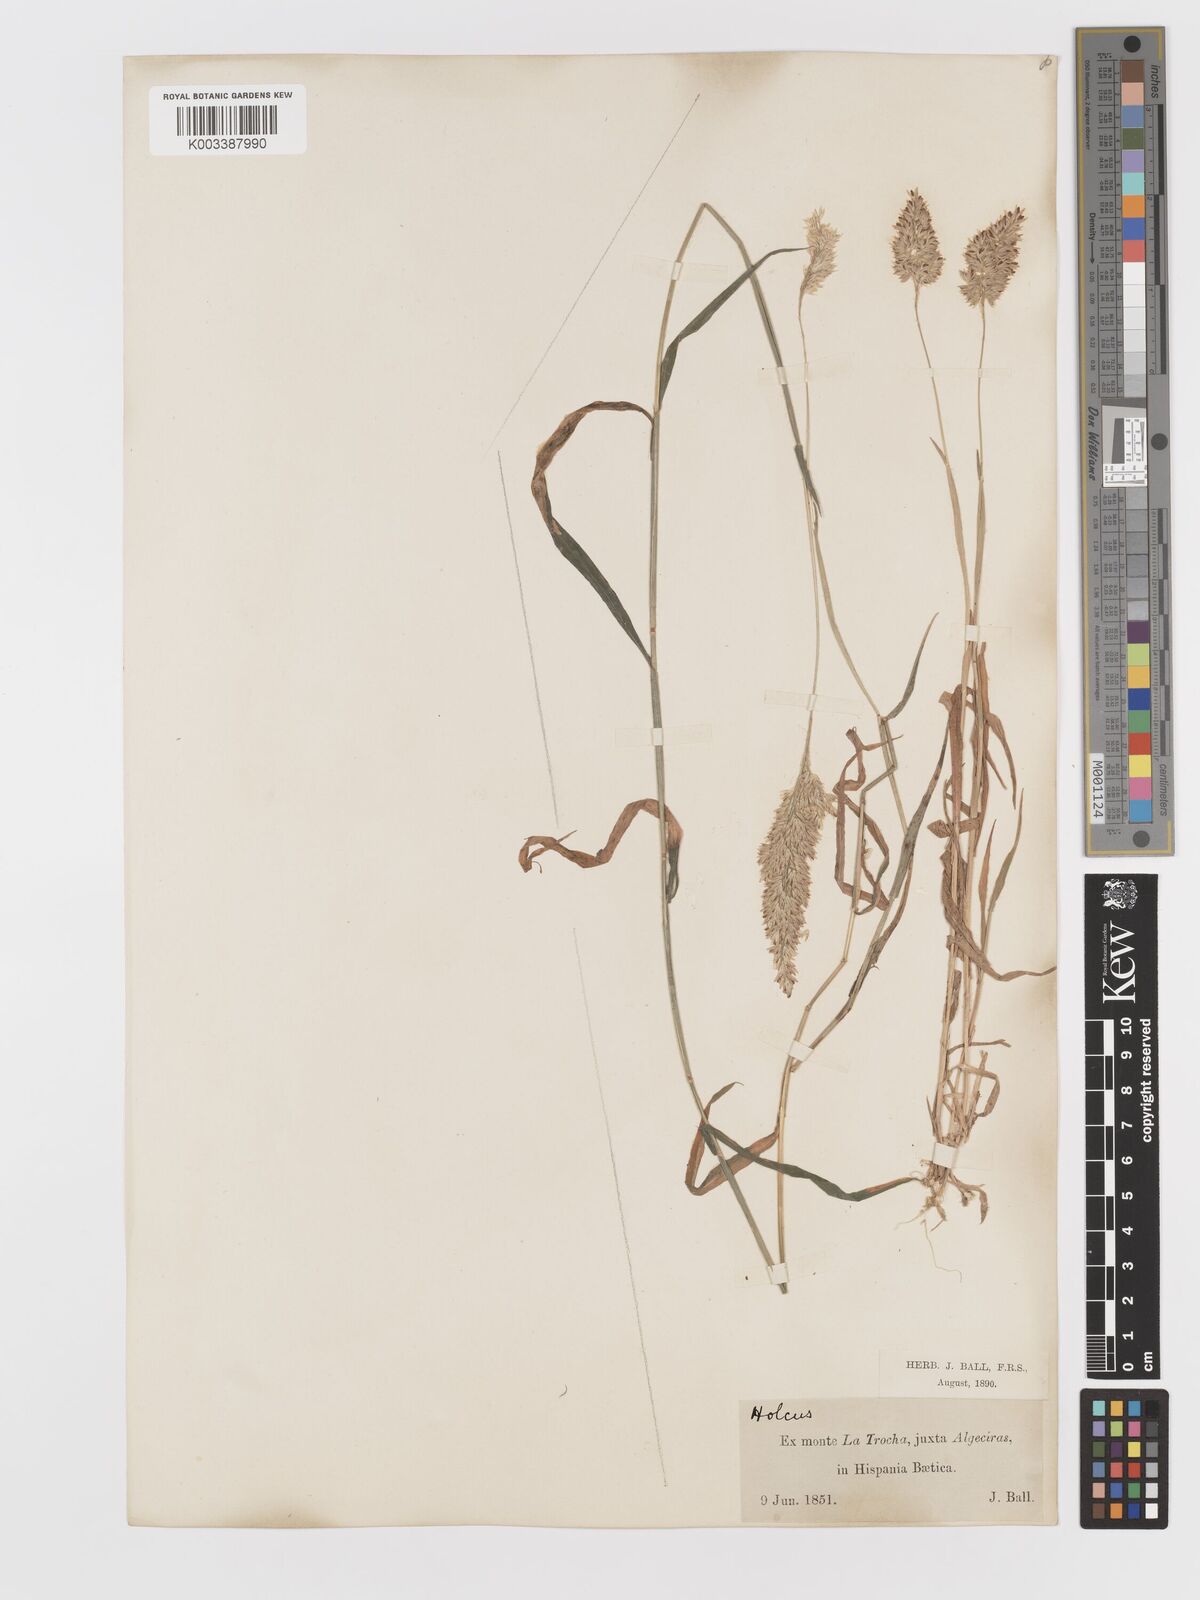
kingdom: Plantae
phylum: Tracheophyta
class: Liliopsida
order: Poales
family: Poaceae
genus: Holcus
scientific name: Holcus lanatus
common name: Yorkshire-fog
